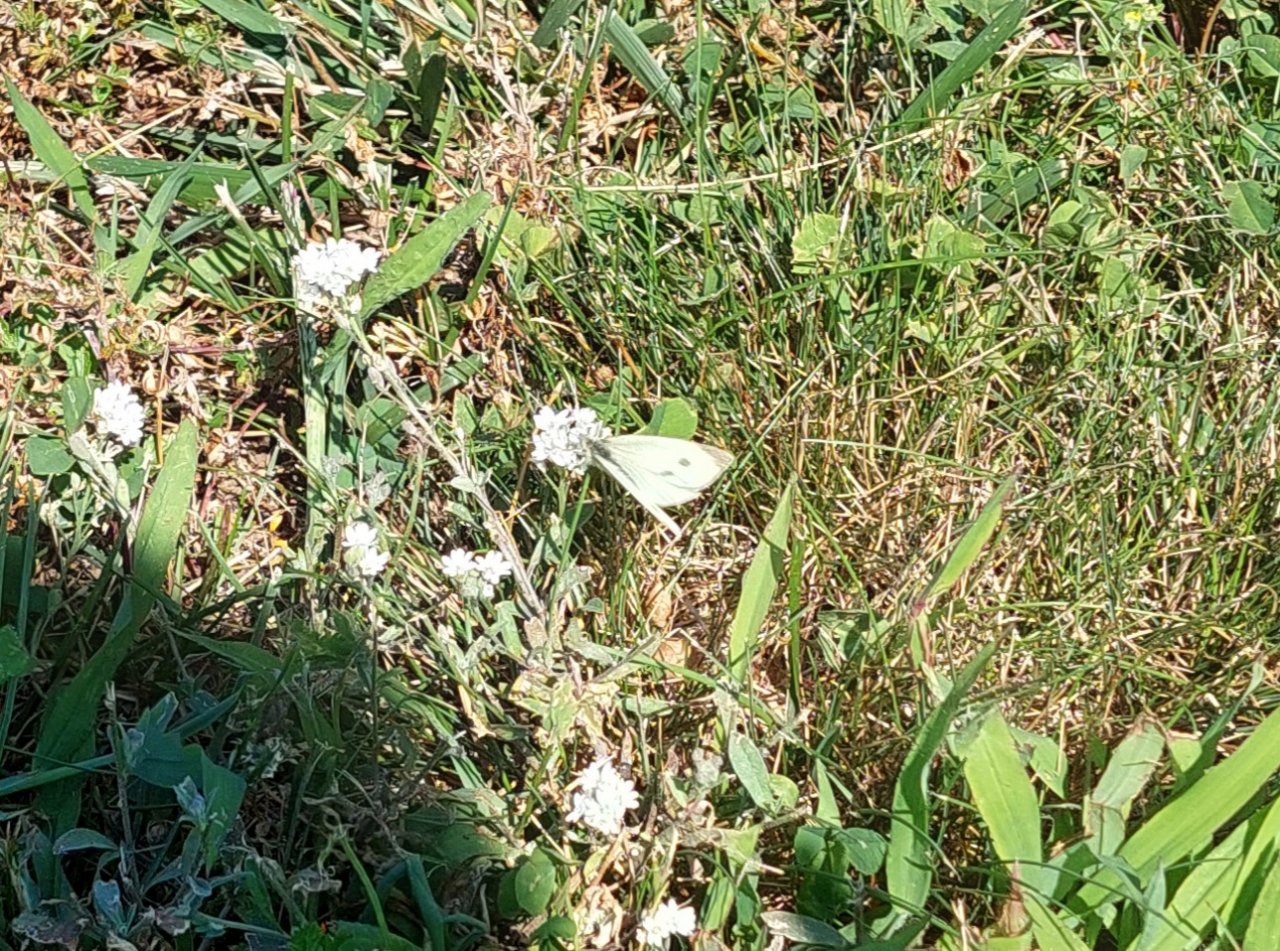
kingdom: Animalia
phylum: Arthropoda
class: Insecta
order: Lepidoptera
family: Pieridae
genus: Pieris
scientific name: Pieris rapae
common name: Cabbage White
